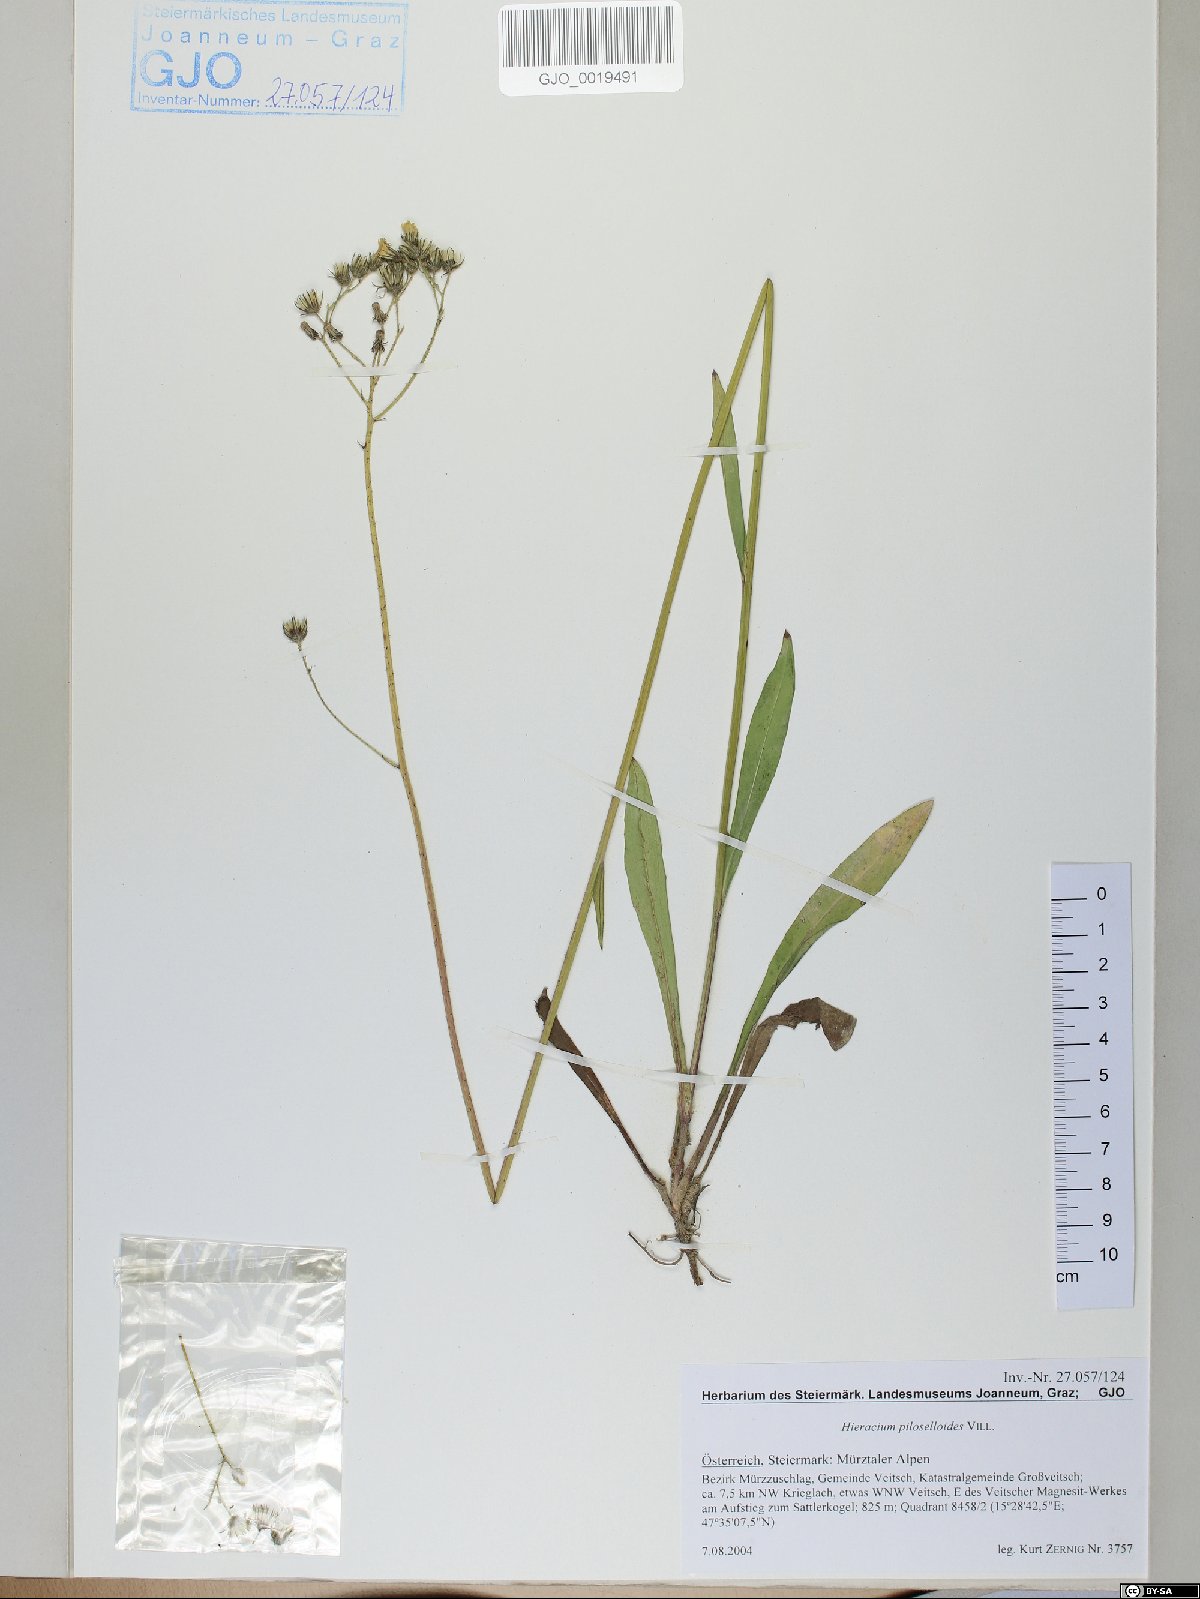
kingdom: Plantae
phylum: Tracheophyta
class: Magnoliopsida
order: Asterales
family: Asteraceae
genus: Pilosella
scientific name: Pilosella piloselloides
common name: Glaucous king-devil
